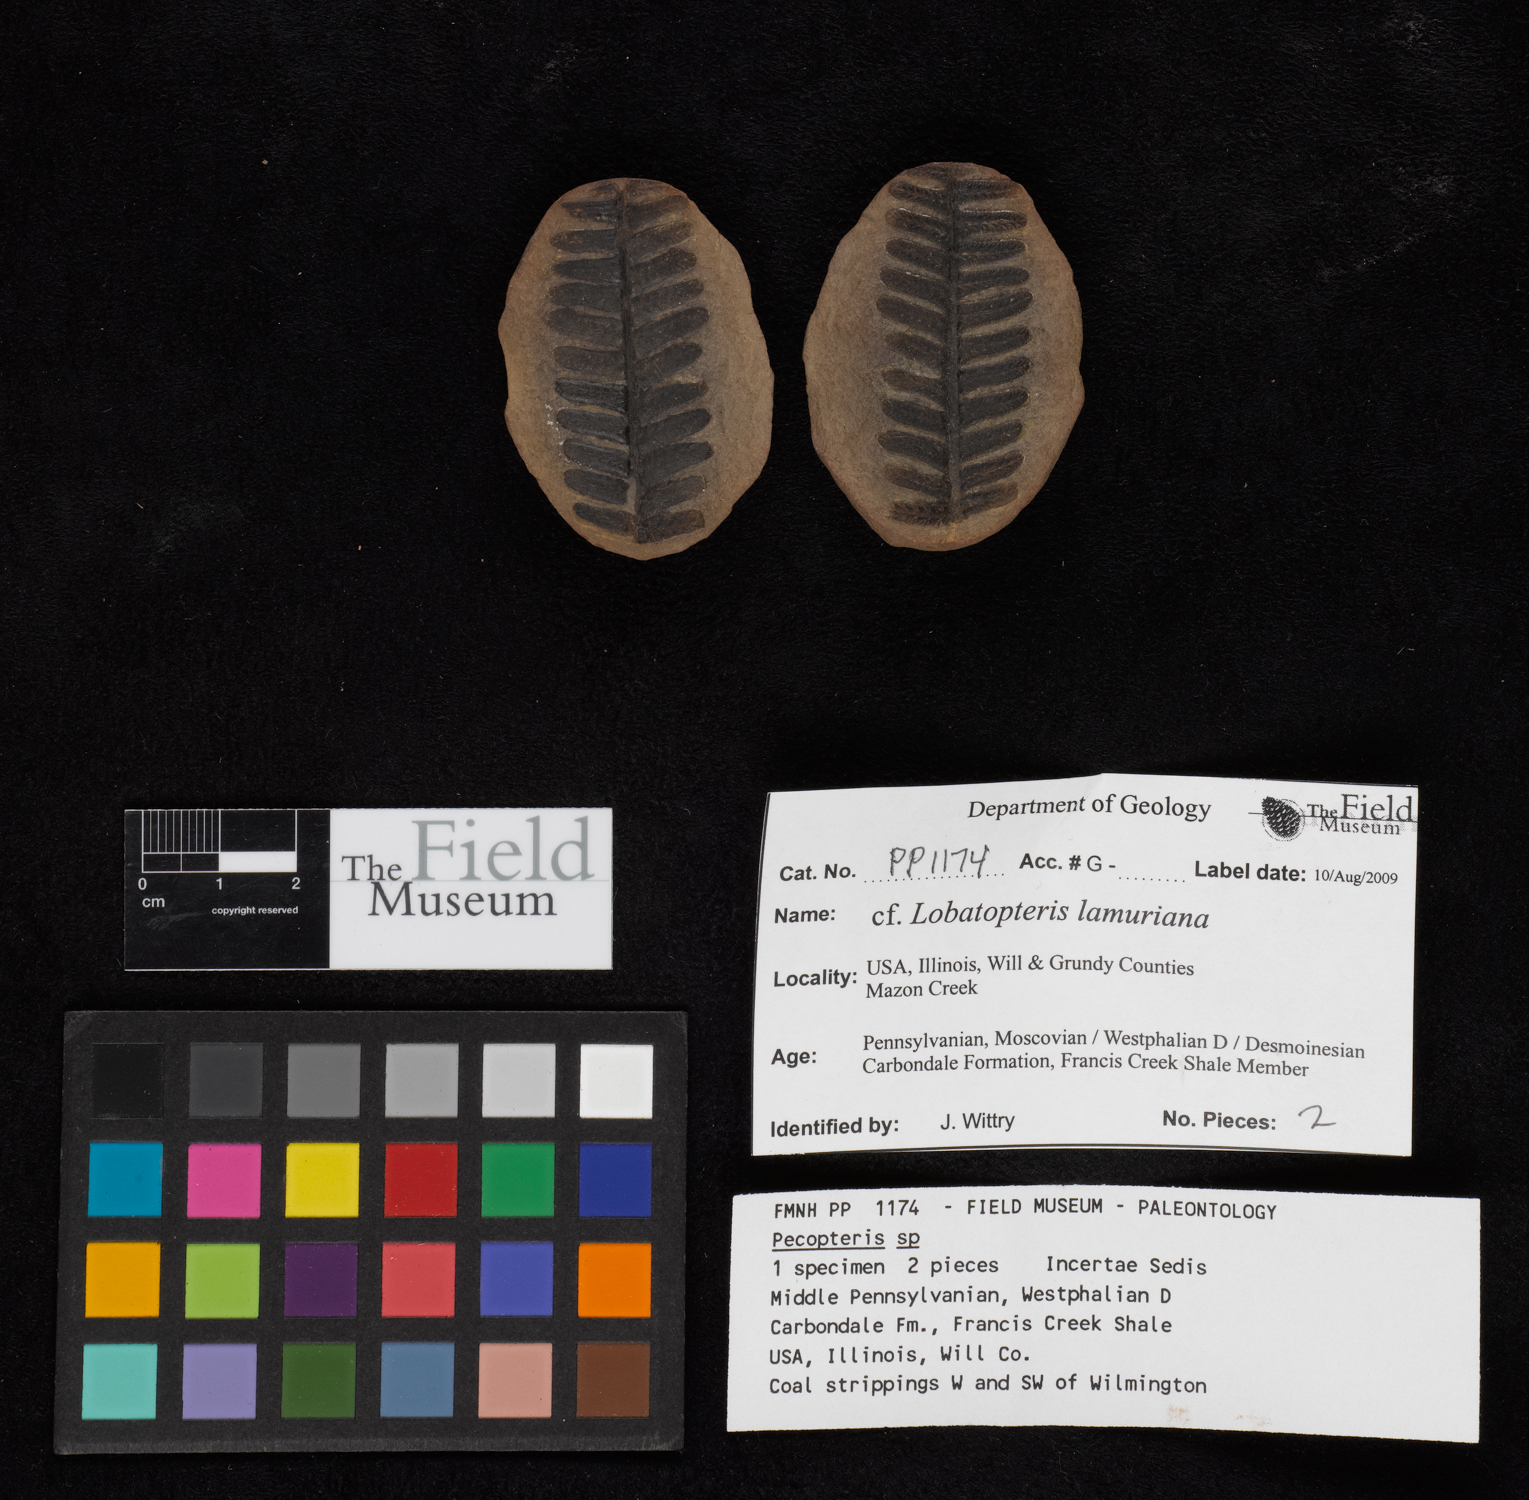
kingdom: Plantae
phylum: Tracheophyta
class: Polypodiopsida
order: Marattiales
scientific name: Marattiales
